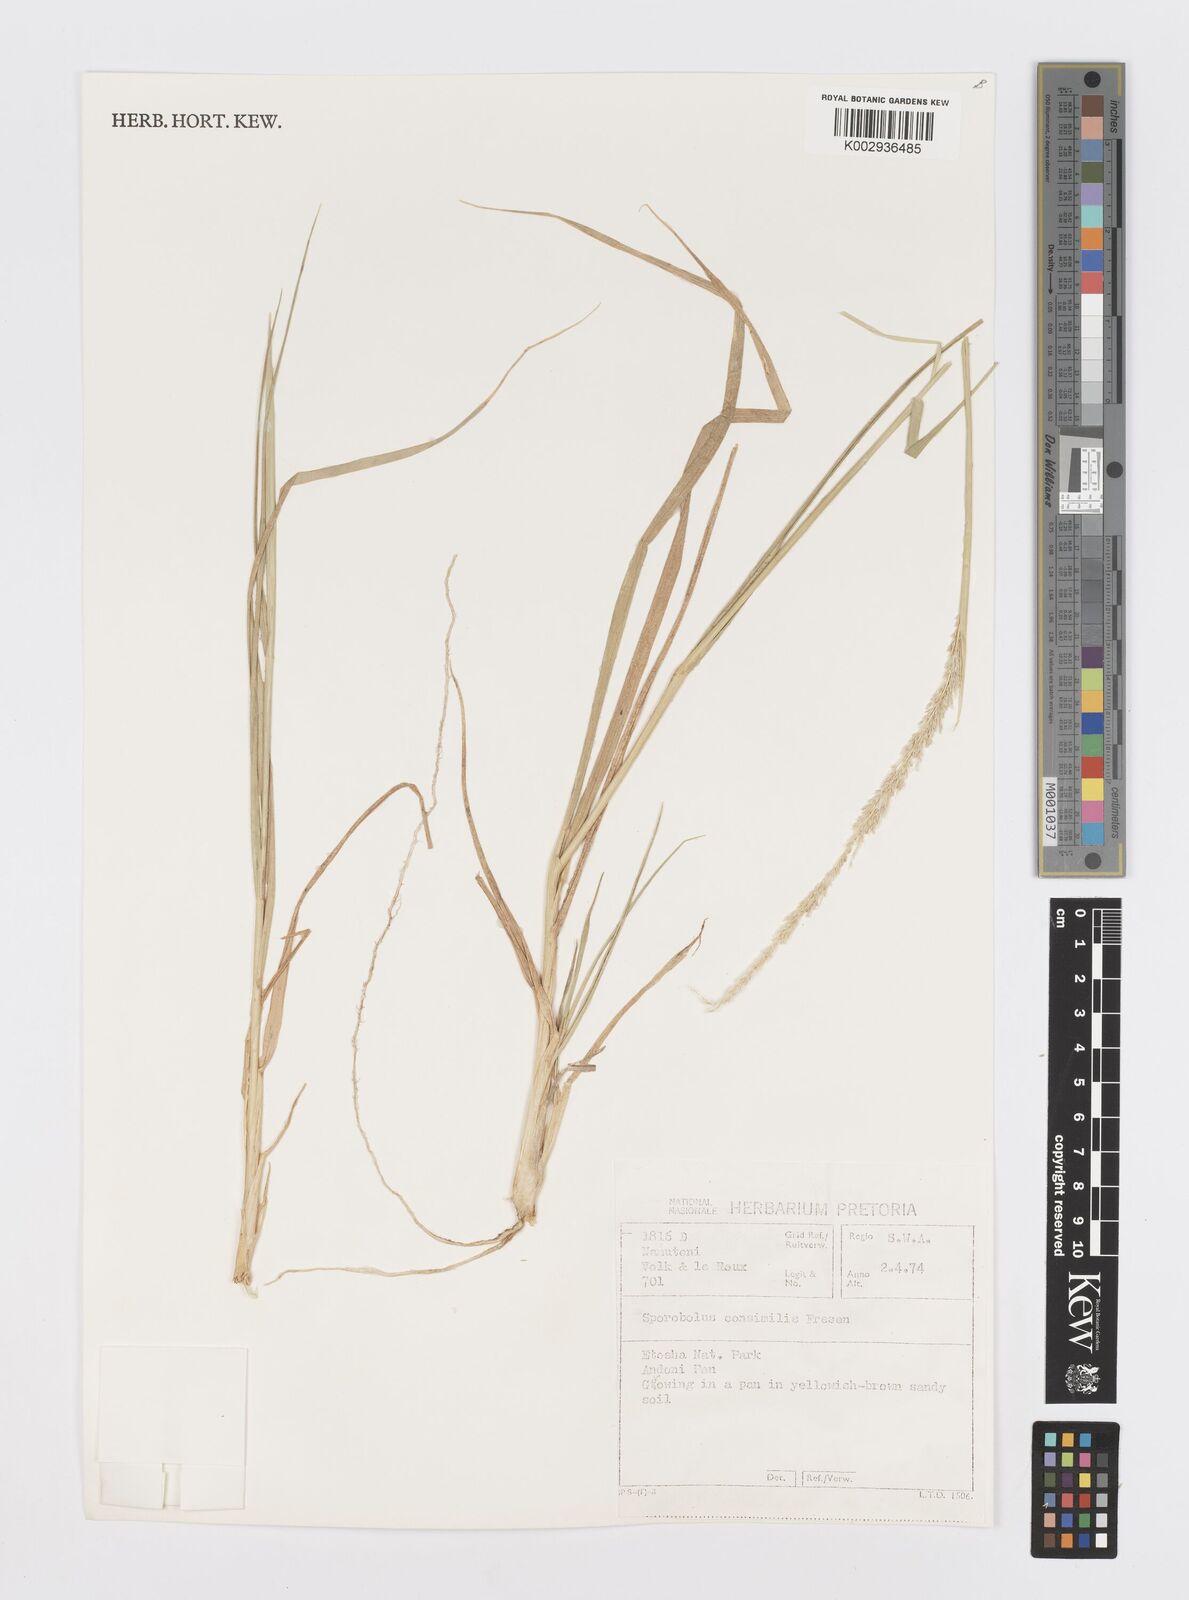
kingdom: Plantae
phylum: Tracheophyta
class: Liliopsida
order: Poales
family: Poaceae
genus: Sporobolus
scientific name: Sporobolus consimilis
